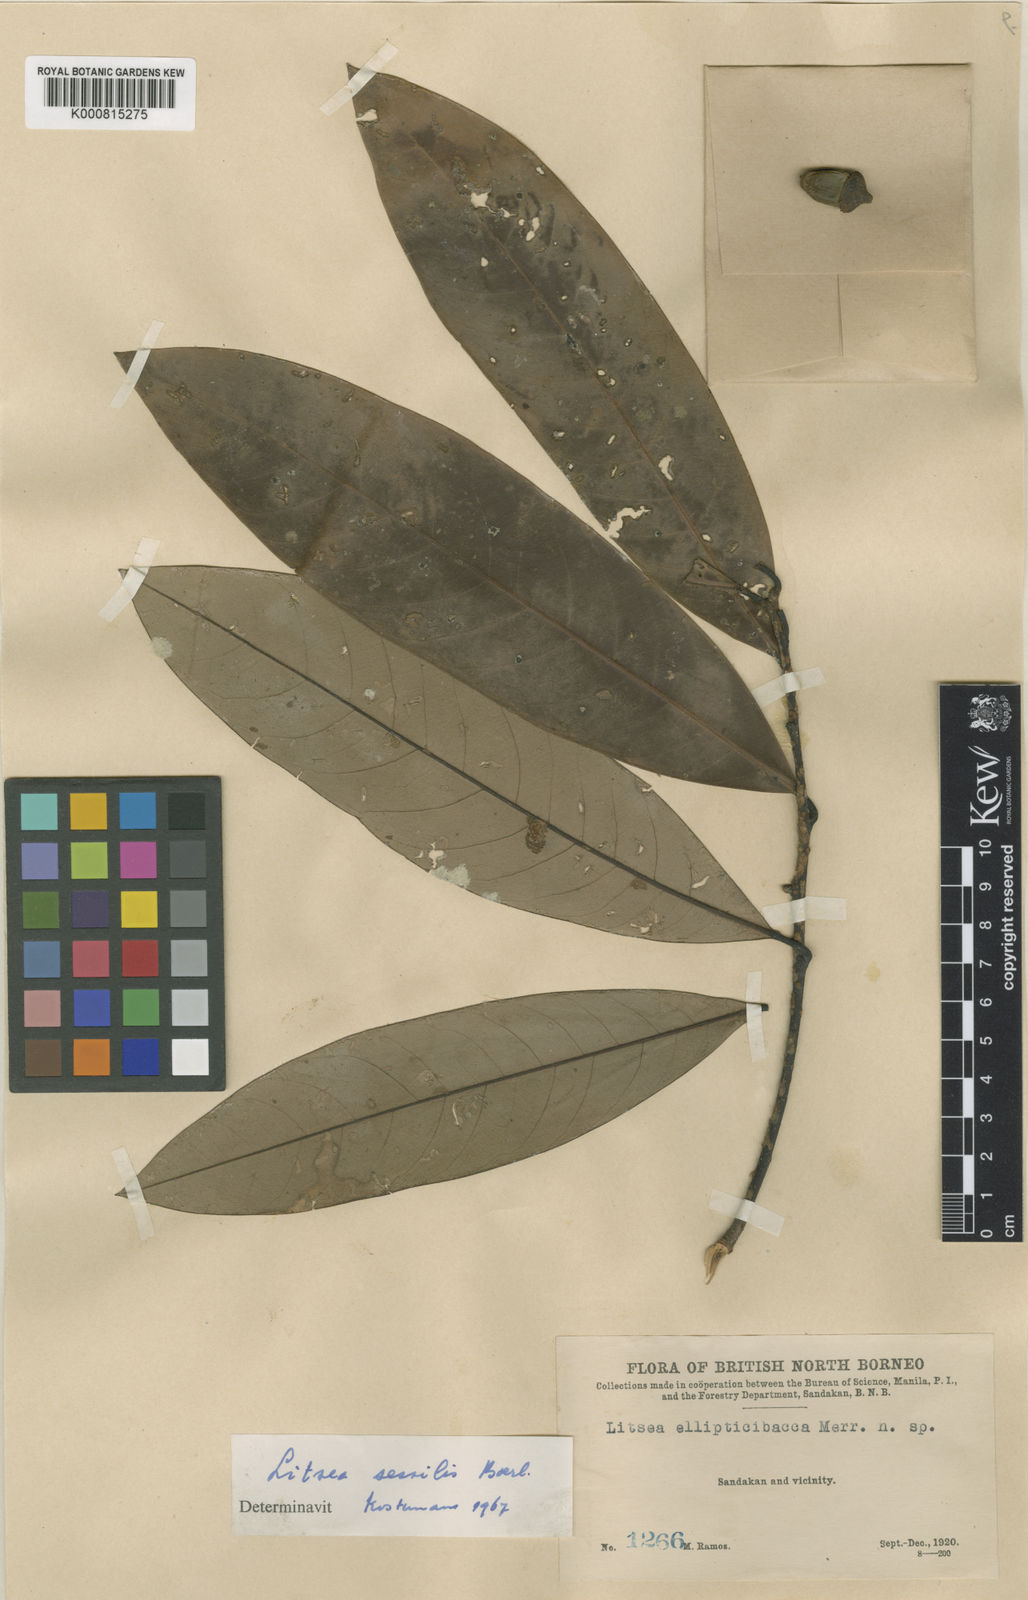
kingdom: Plantae
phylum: Tracheophyta
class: Magnoliopsida
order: Laurales
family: Lauraceae
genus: Litsea
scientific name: Litsea sessilis
